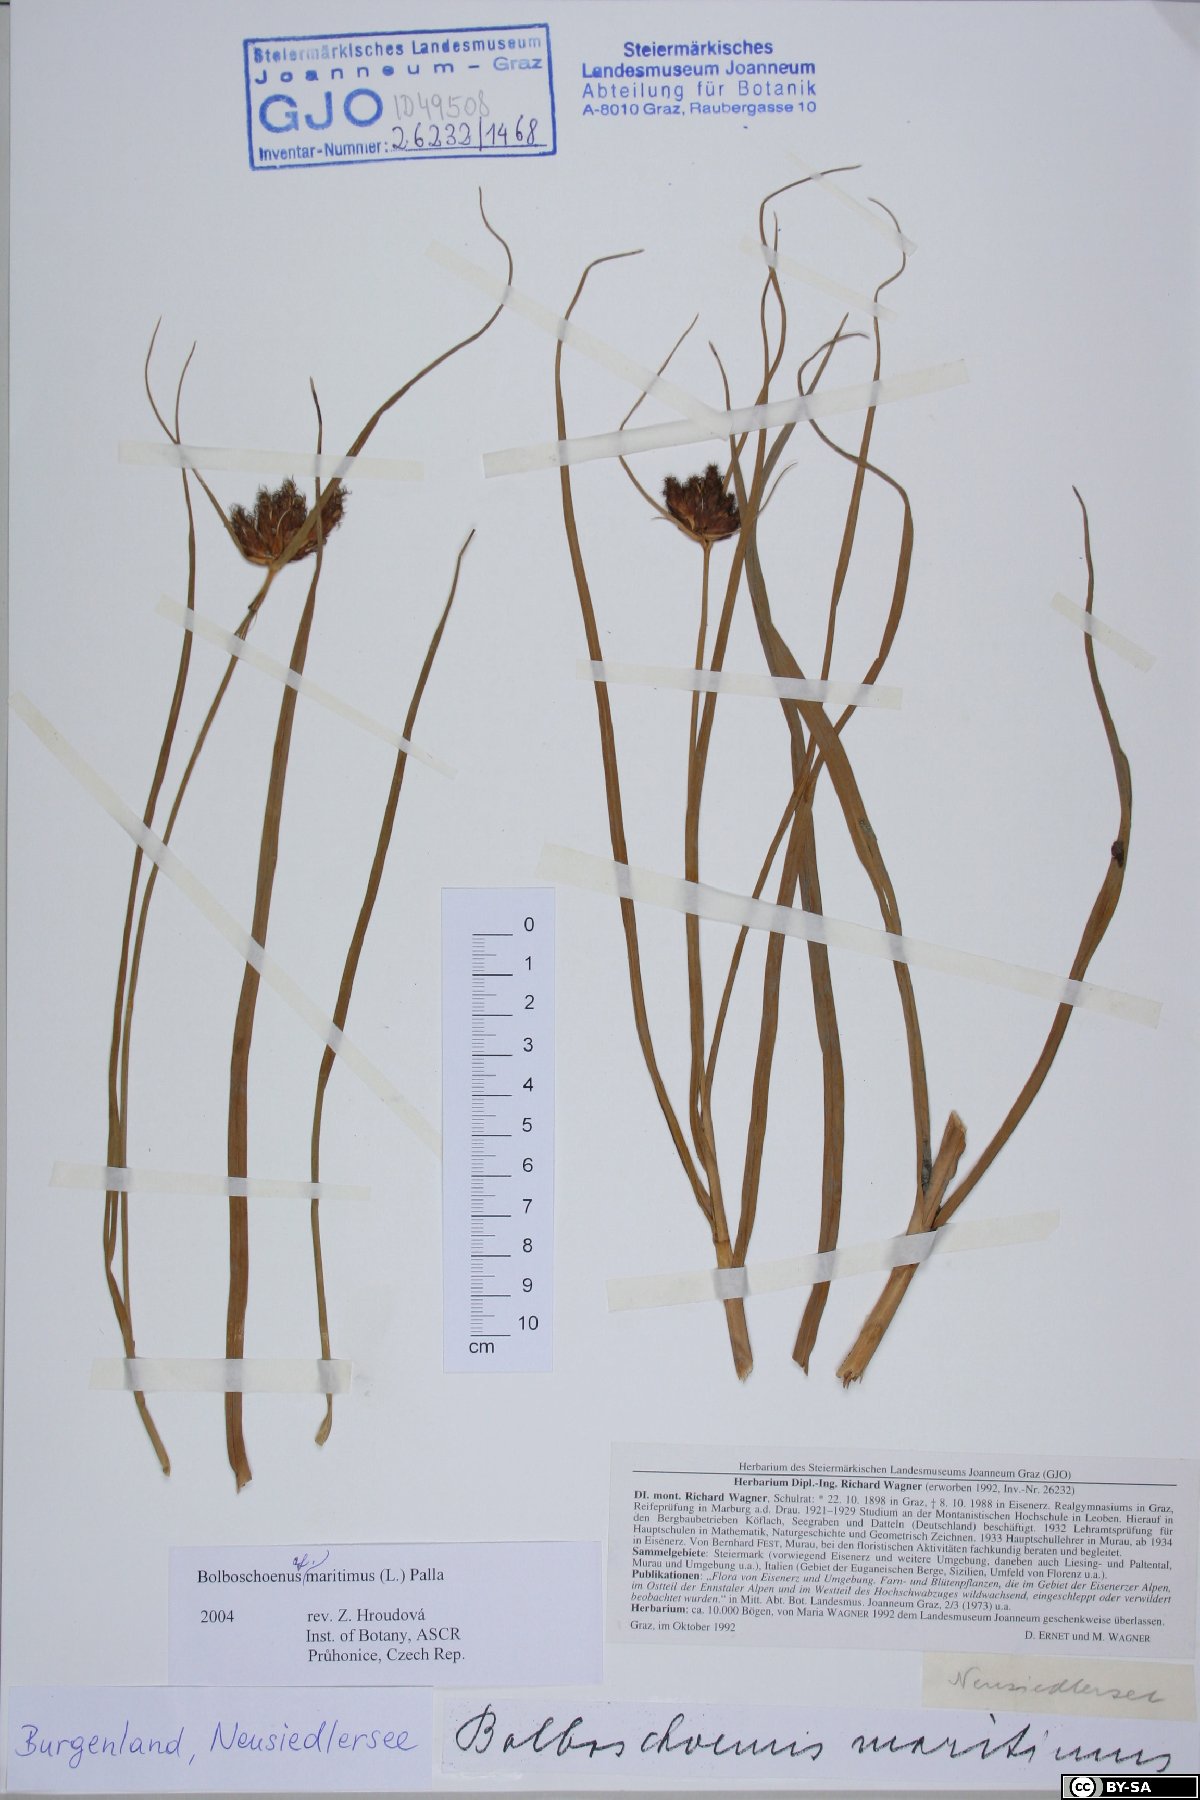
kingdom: Plantae
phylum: Tracheophyta
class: Liliopsida
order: Poales
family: Cyperaceae
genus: Bolboschoenus
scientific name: Bolboschoenus maritimus
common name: Sea club-rush
